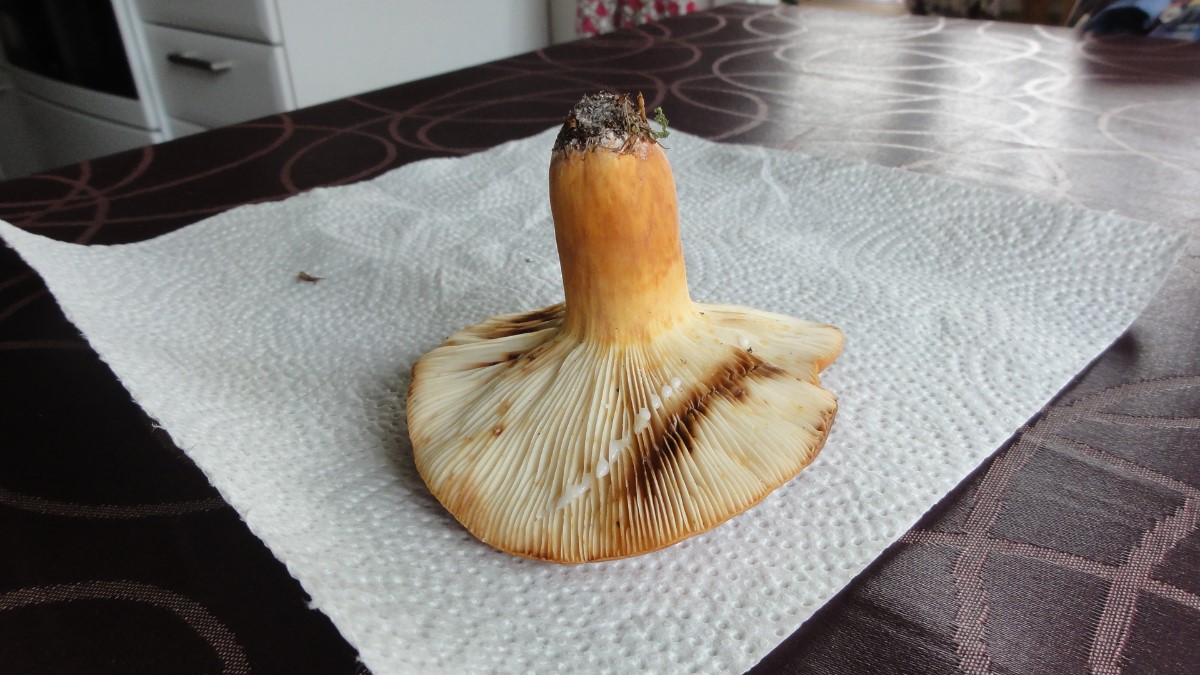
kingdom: Fungi
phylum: Basidiomycota
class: Agaricomycetes
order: Russulales
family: Russulaceae
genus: Lactifluus
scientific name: Lactifluus volemus
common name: spiselig mælkehat
